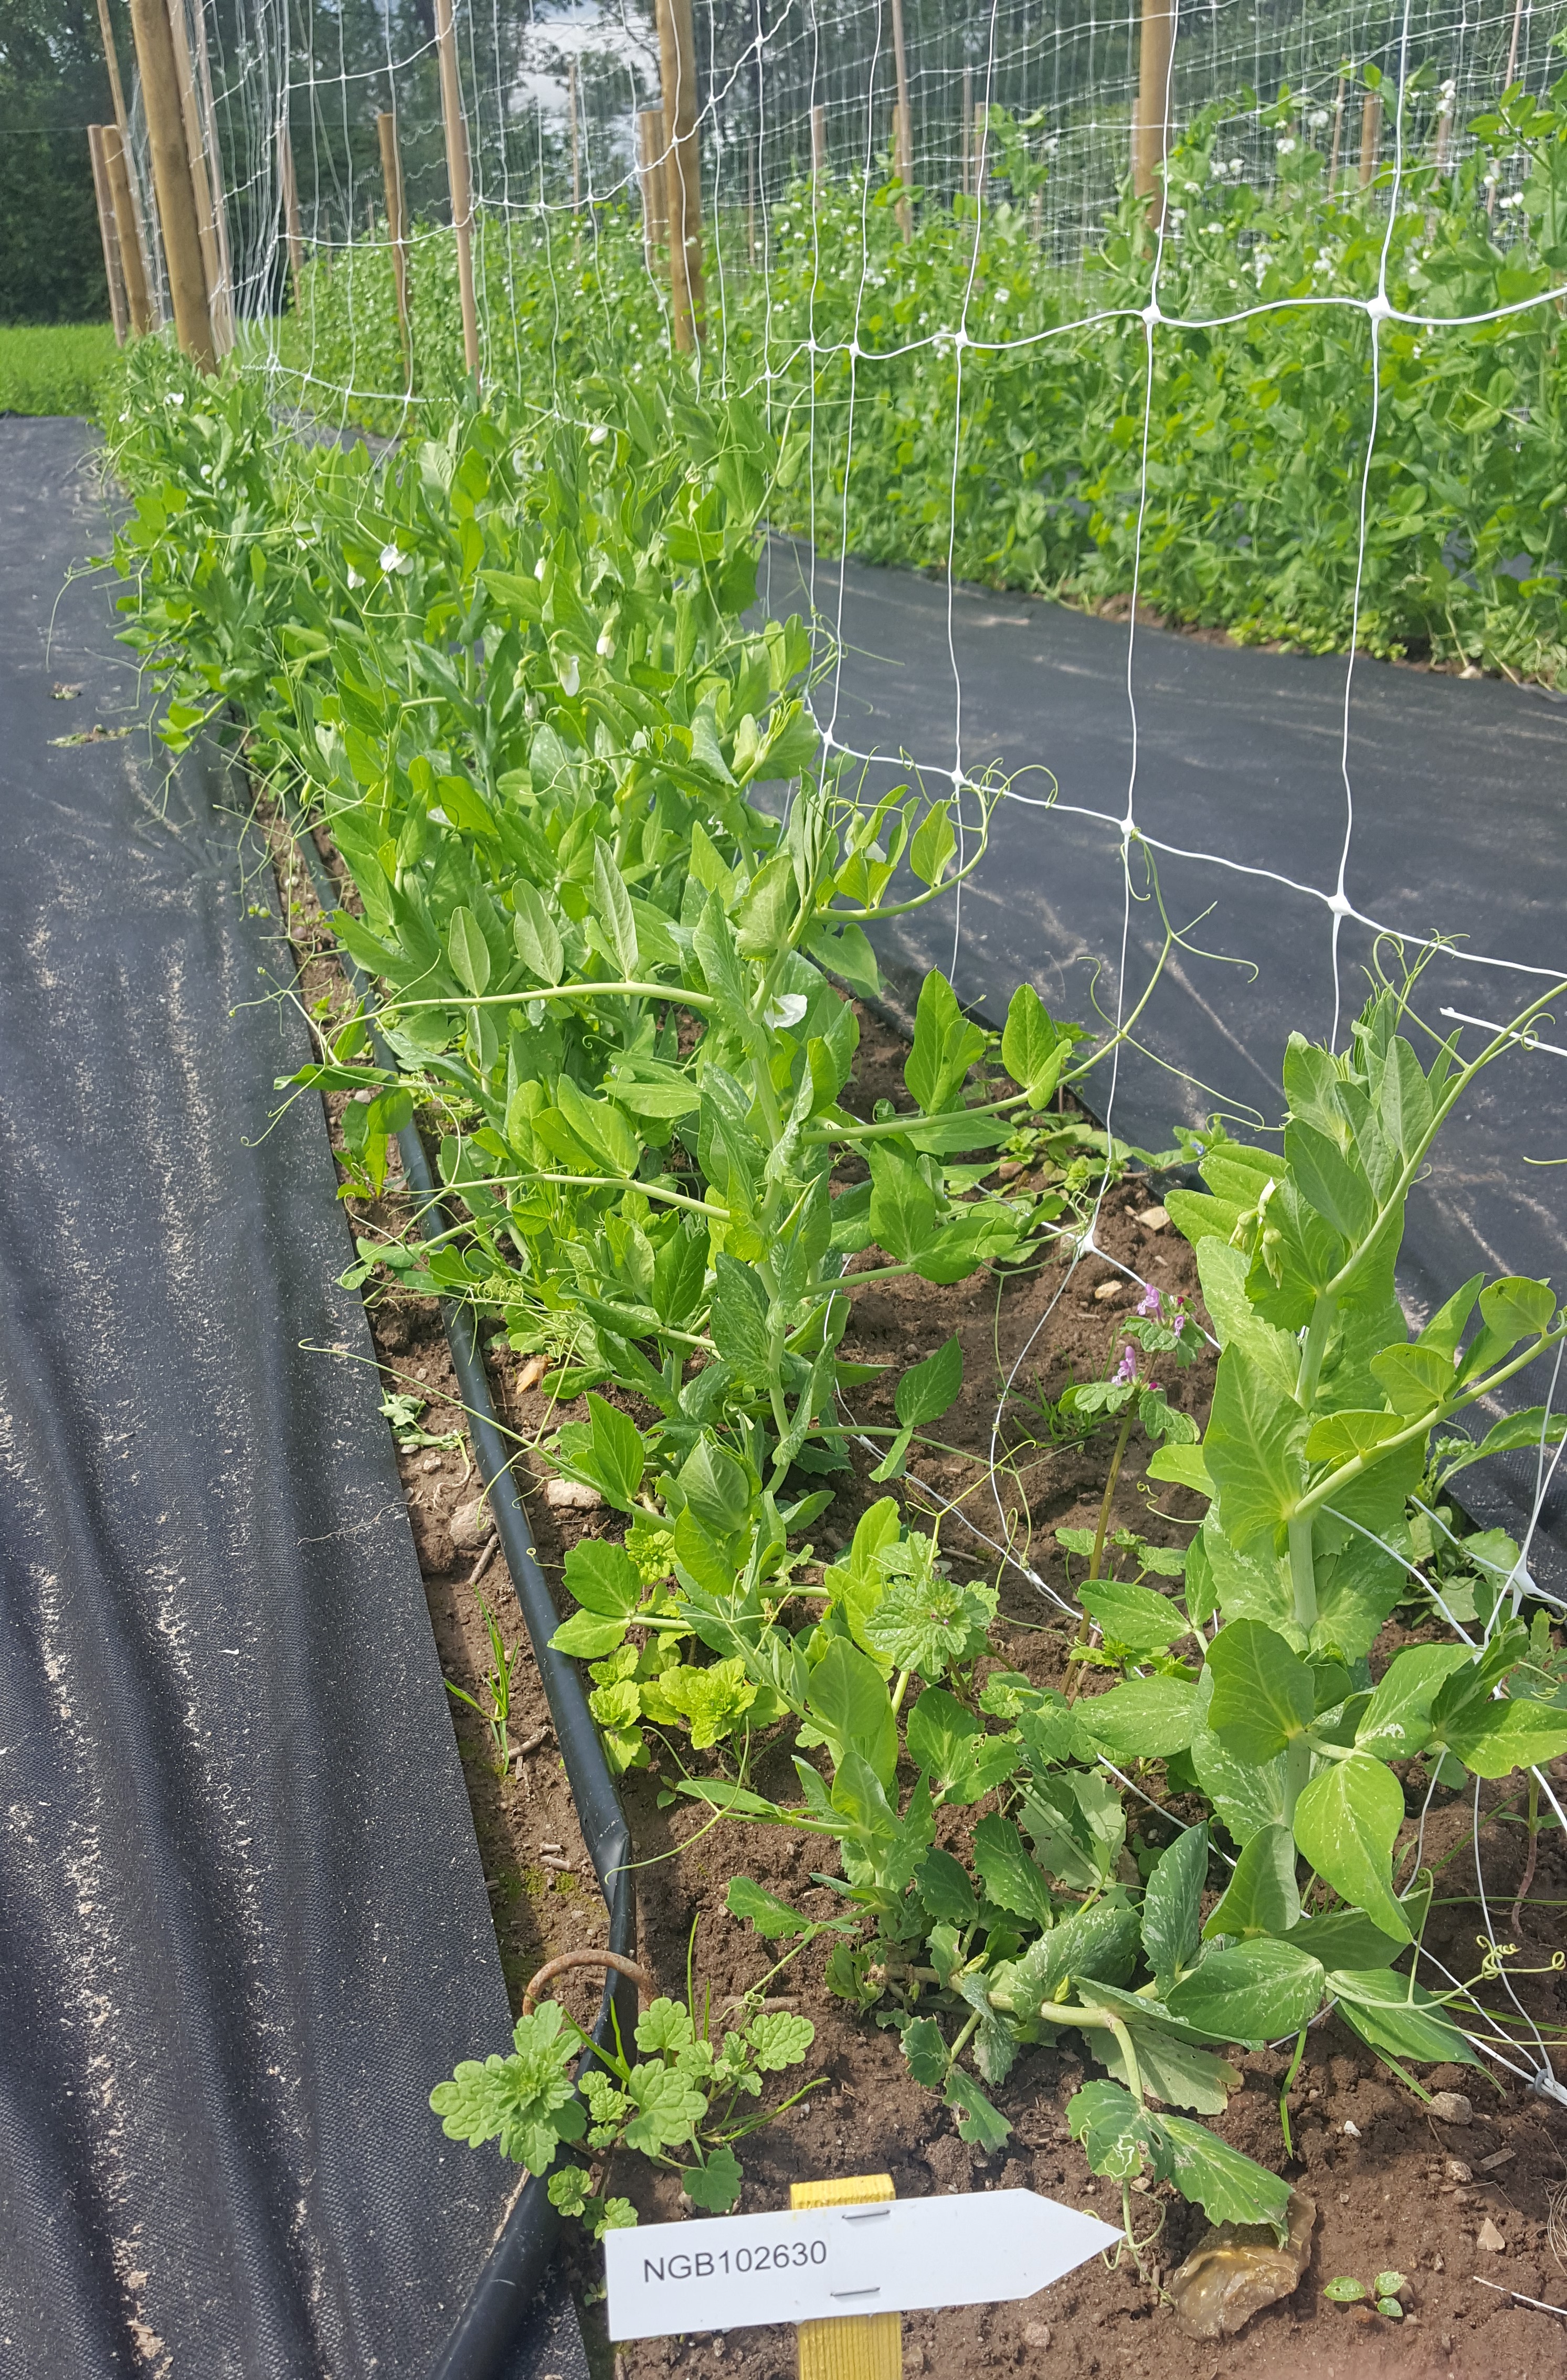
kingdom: Plantae
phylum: Tracheophyta
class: Magnoliopsida
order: Fabales
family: Fabaceae
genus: Lathyrus
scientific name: Lathyrus oleraceus
